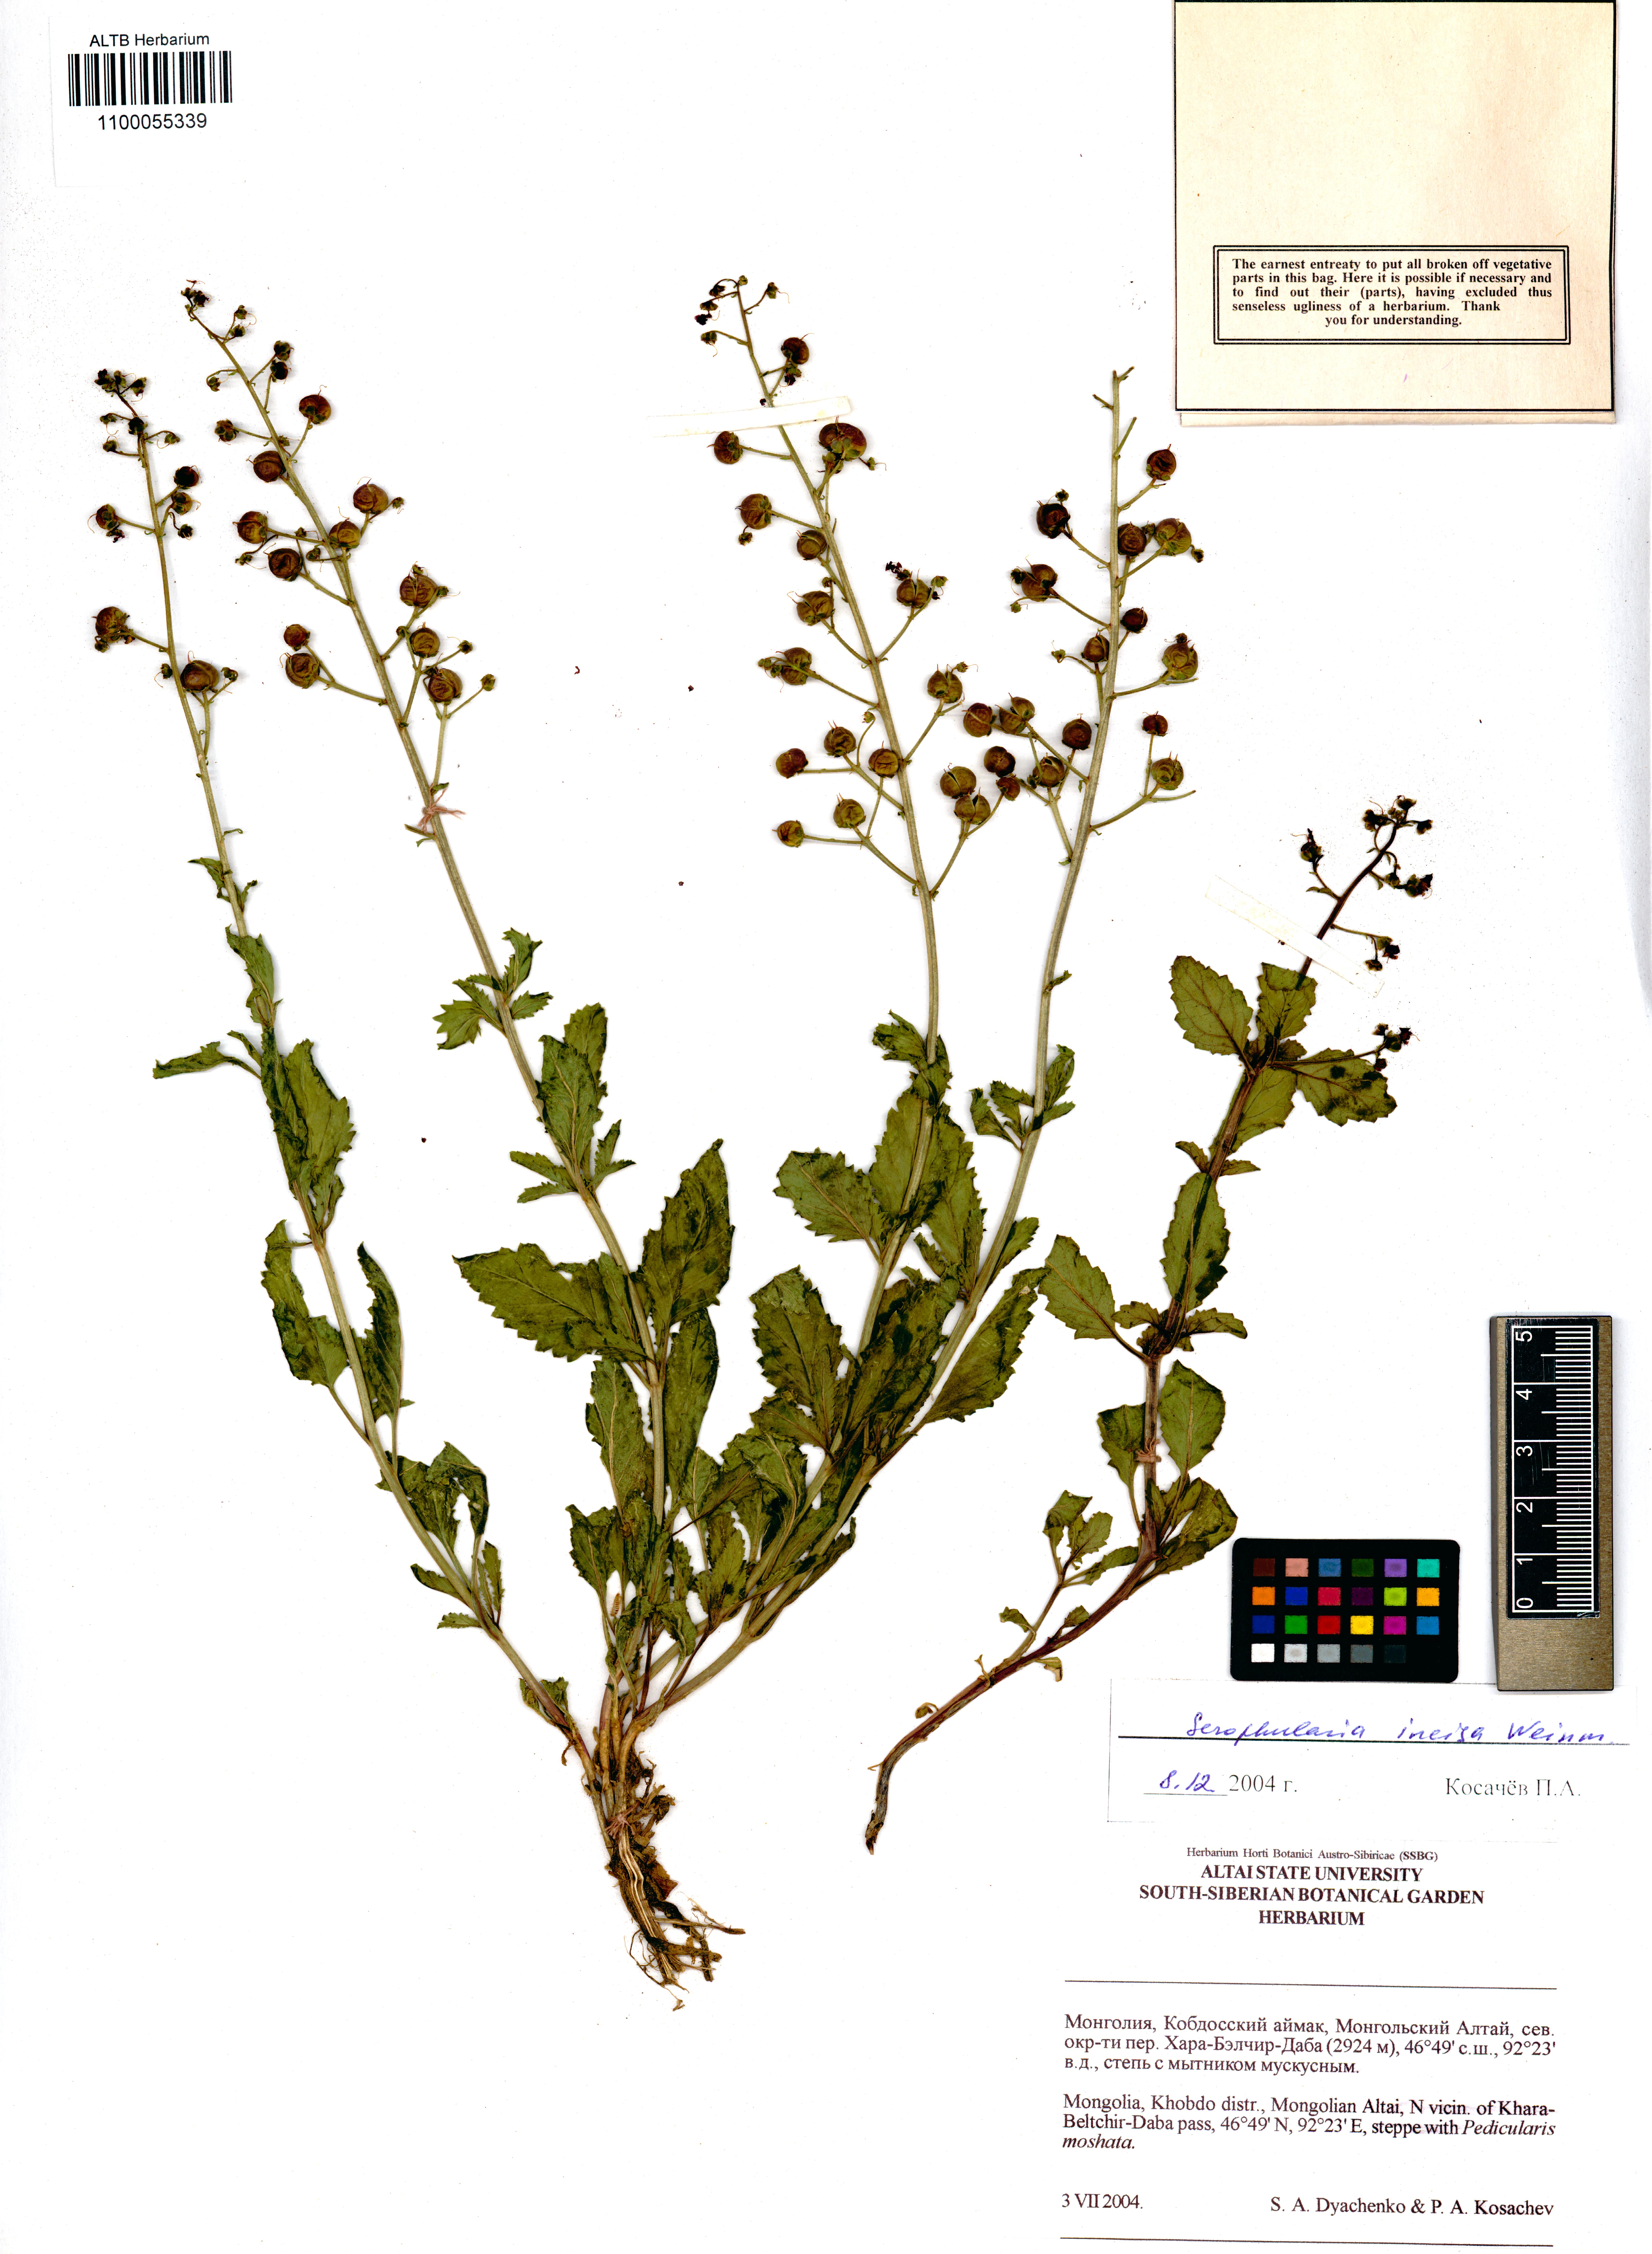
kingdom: Plantae
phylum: Tracheophyta
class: Magnoliopsida
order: Lamiales
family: Scrophulariaceae
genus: Scrophularia
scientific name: Scrophularia incisa
